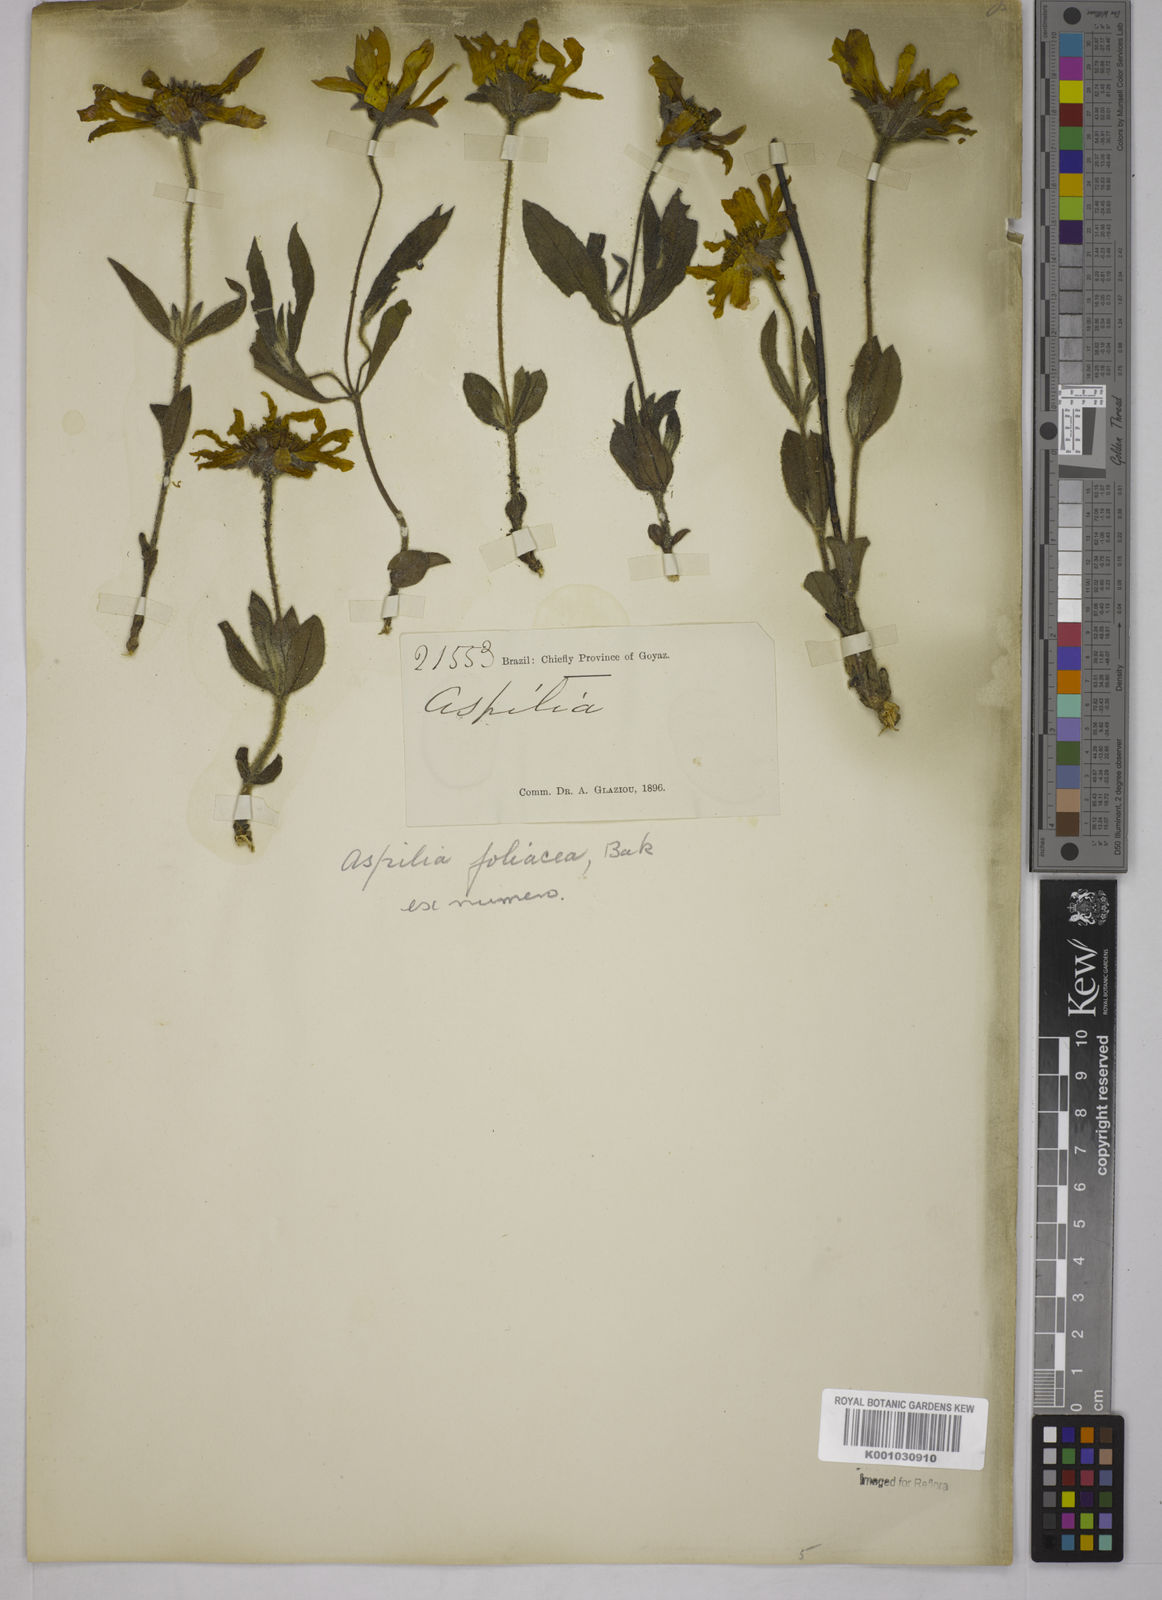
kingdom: Plantae
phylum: Tracheophyta
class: Magnoliopsida
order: Asterales
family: Asteraceae
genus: Wedelia
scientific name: Wedelia foliacea
